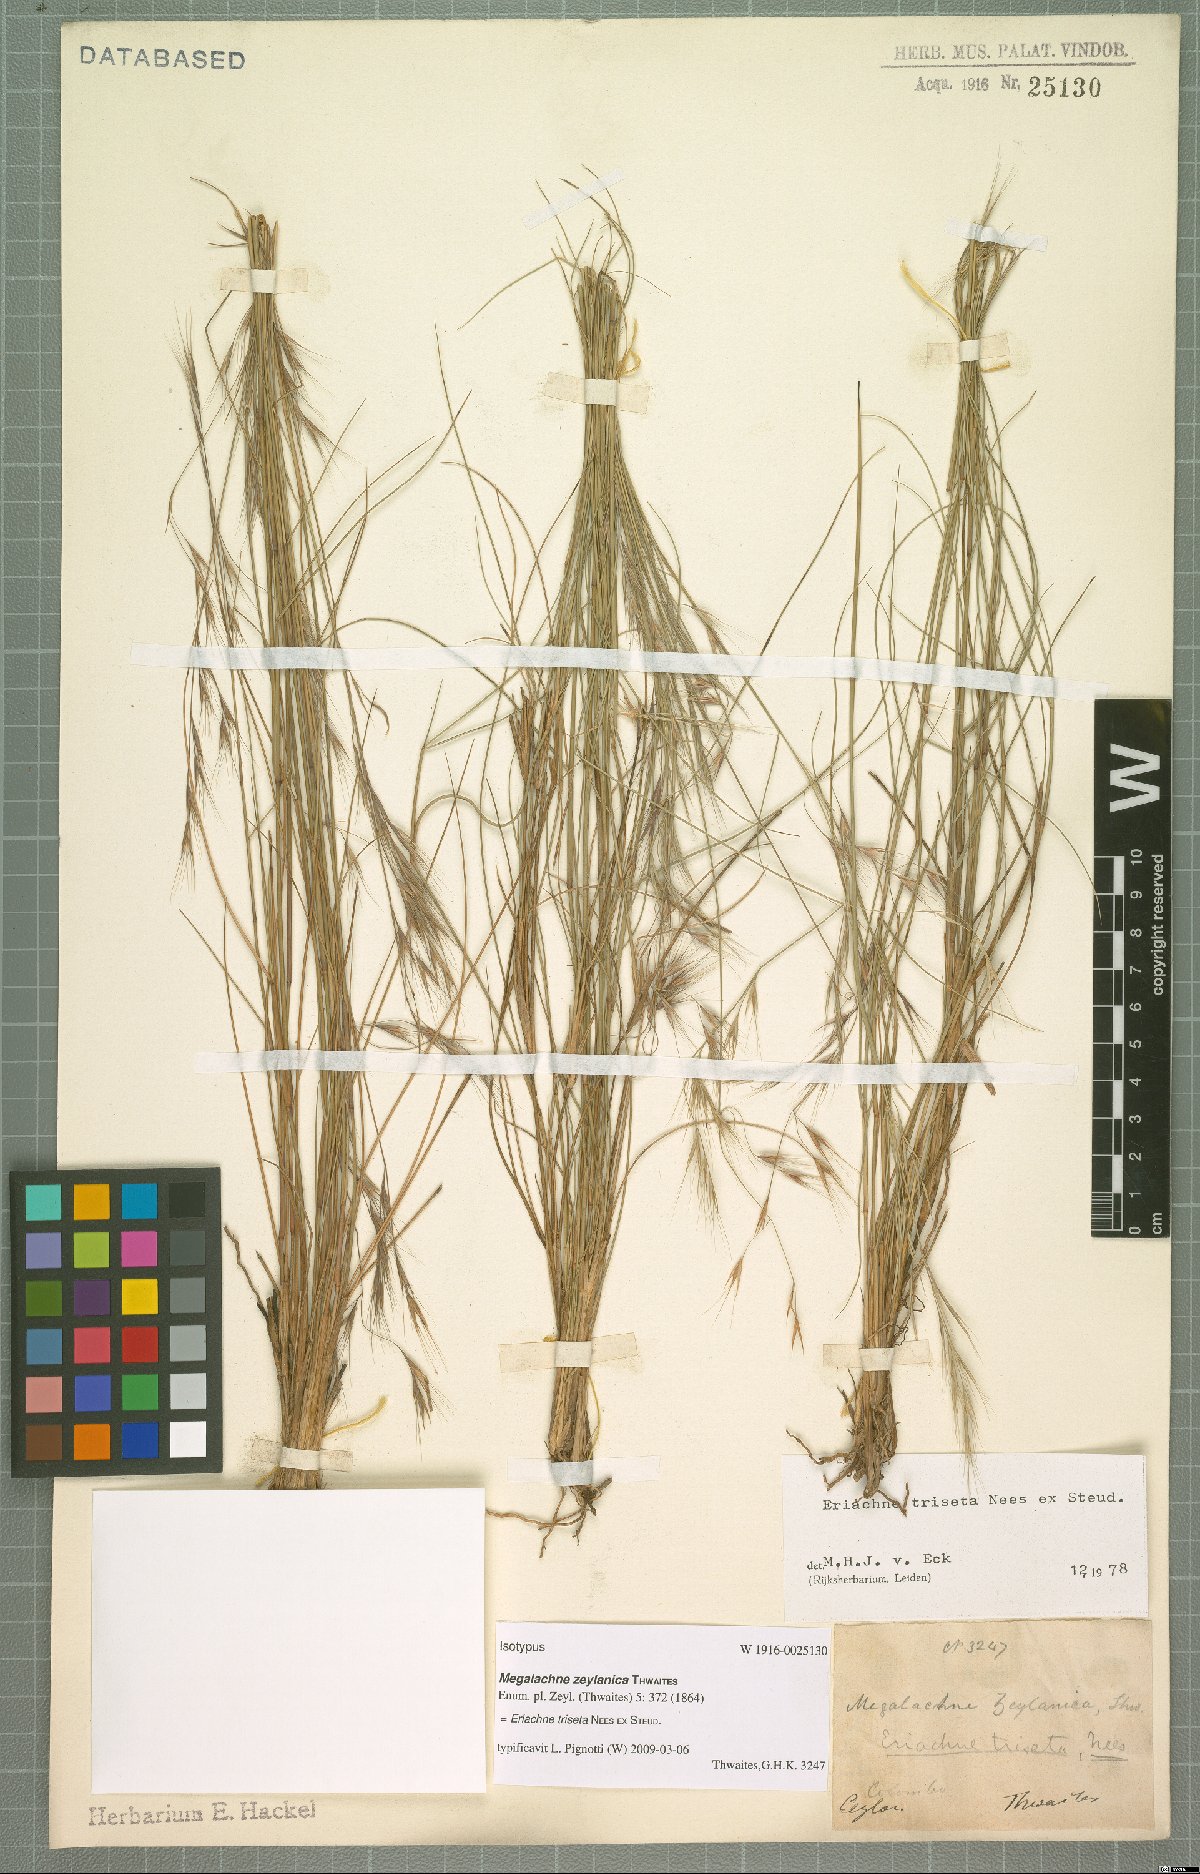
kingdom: Plantae
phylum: Tracheophyta
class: Liliopsida
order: Poales
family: Poaceae
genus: Eriachne
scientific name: Eriachne triseta
